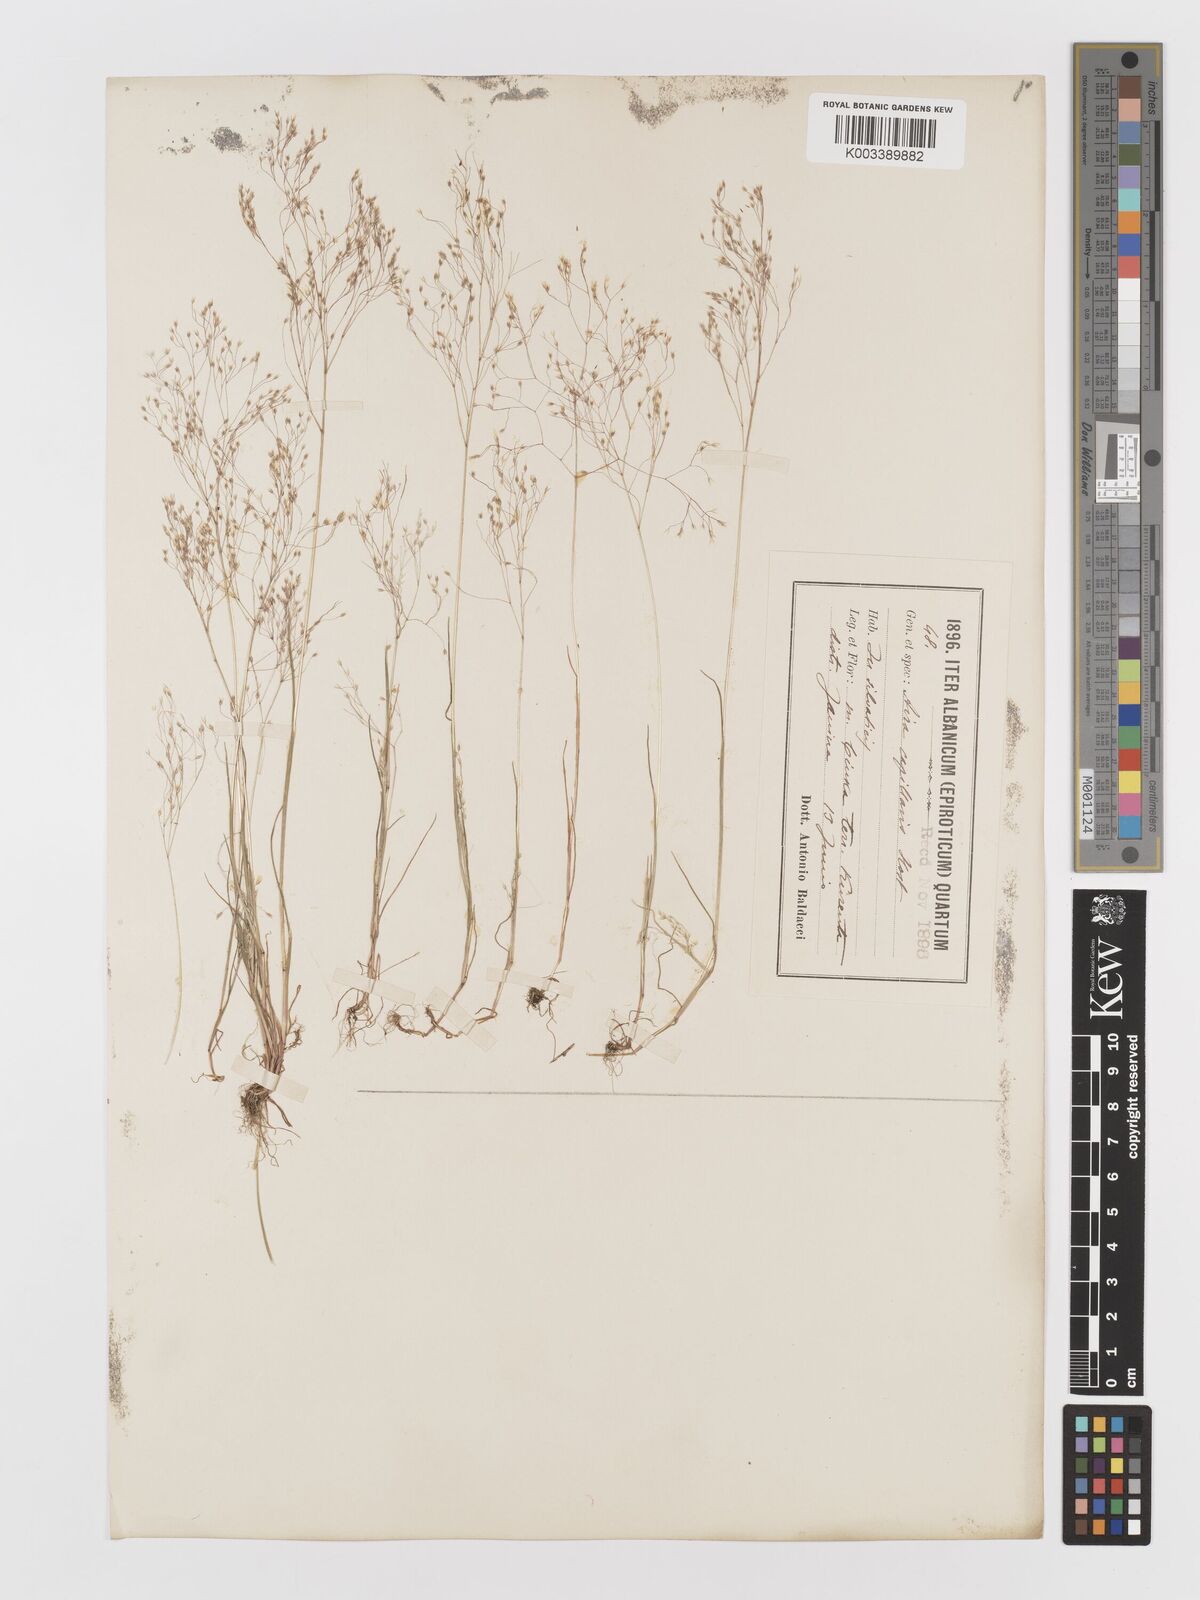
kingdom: Plantae
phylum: Tracheophyta
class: Liliopsida
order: Poales
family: Poaceae
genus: Aira
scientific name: Aira elegans
